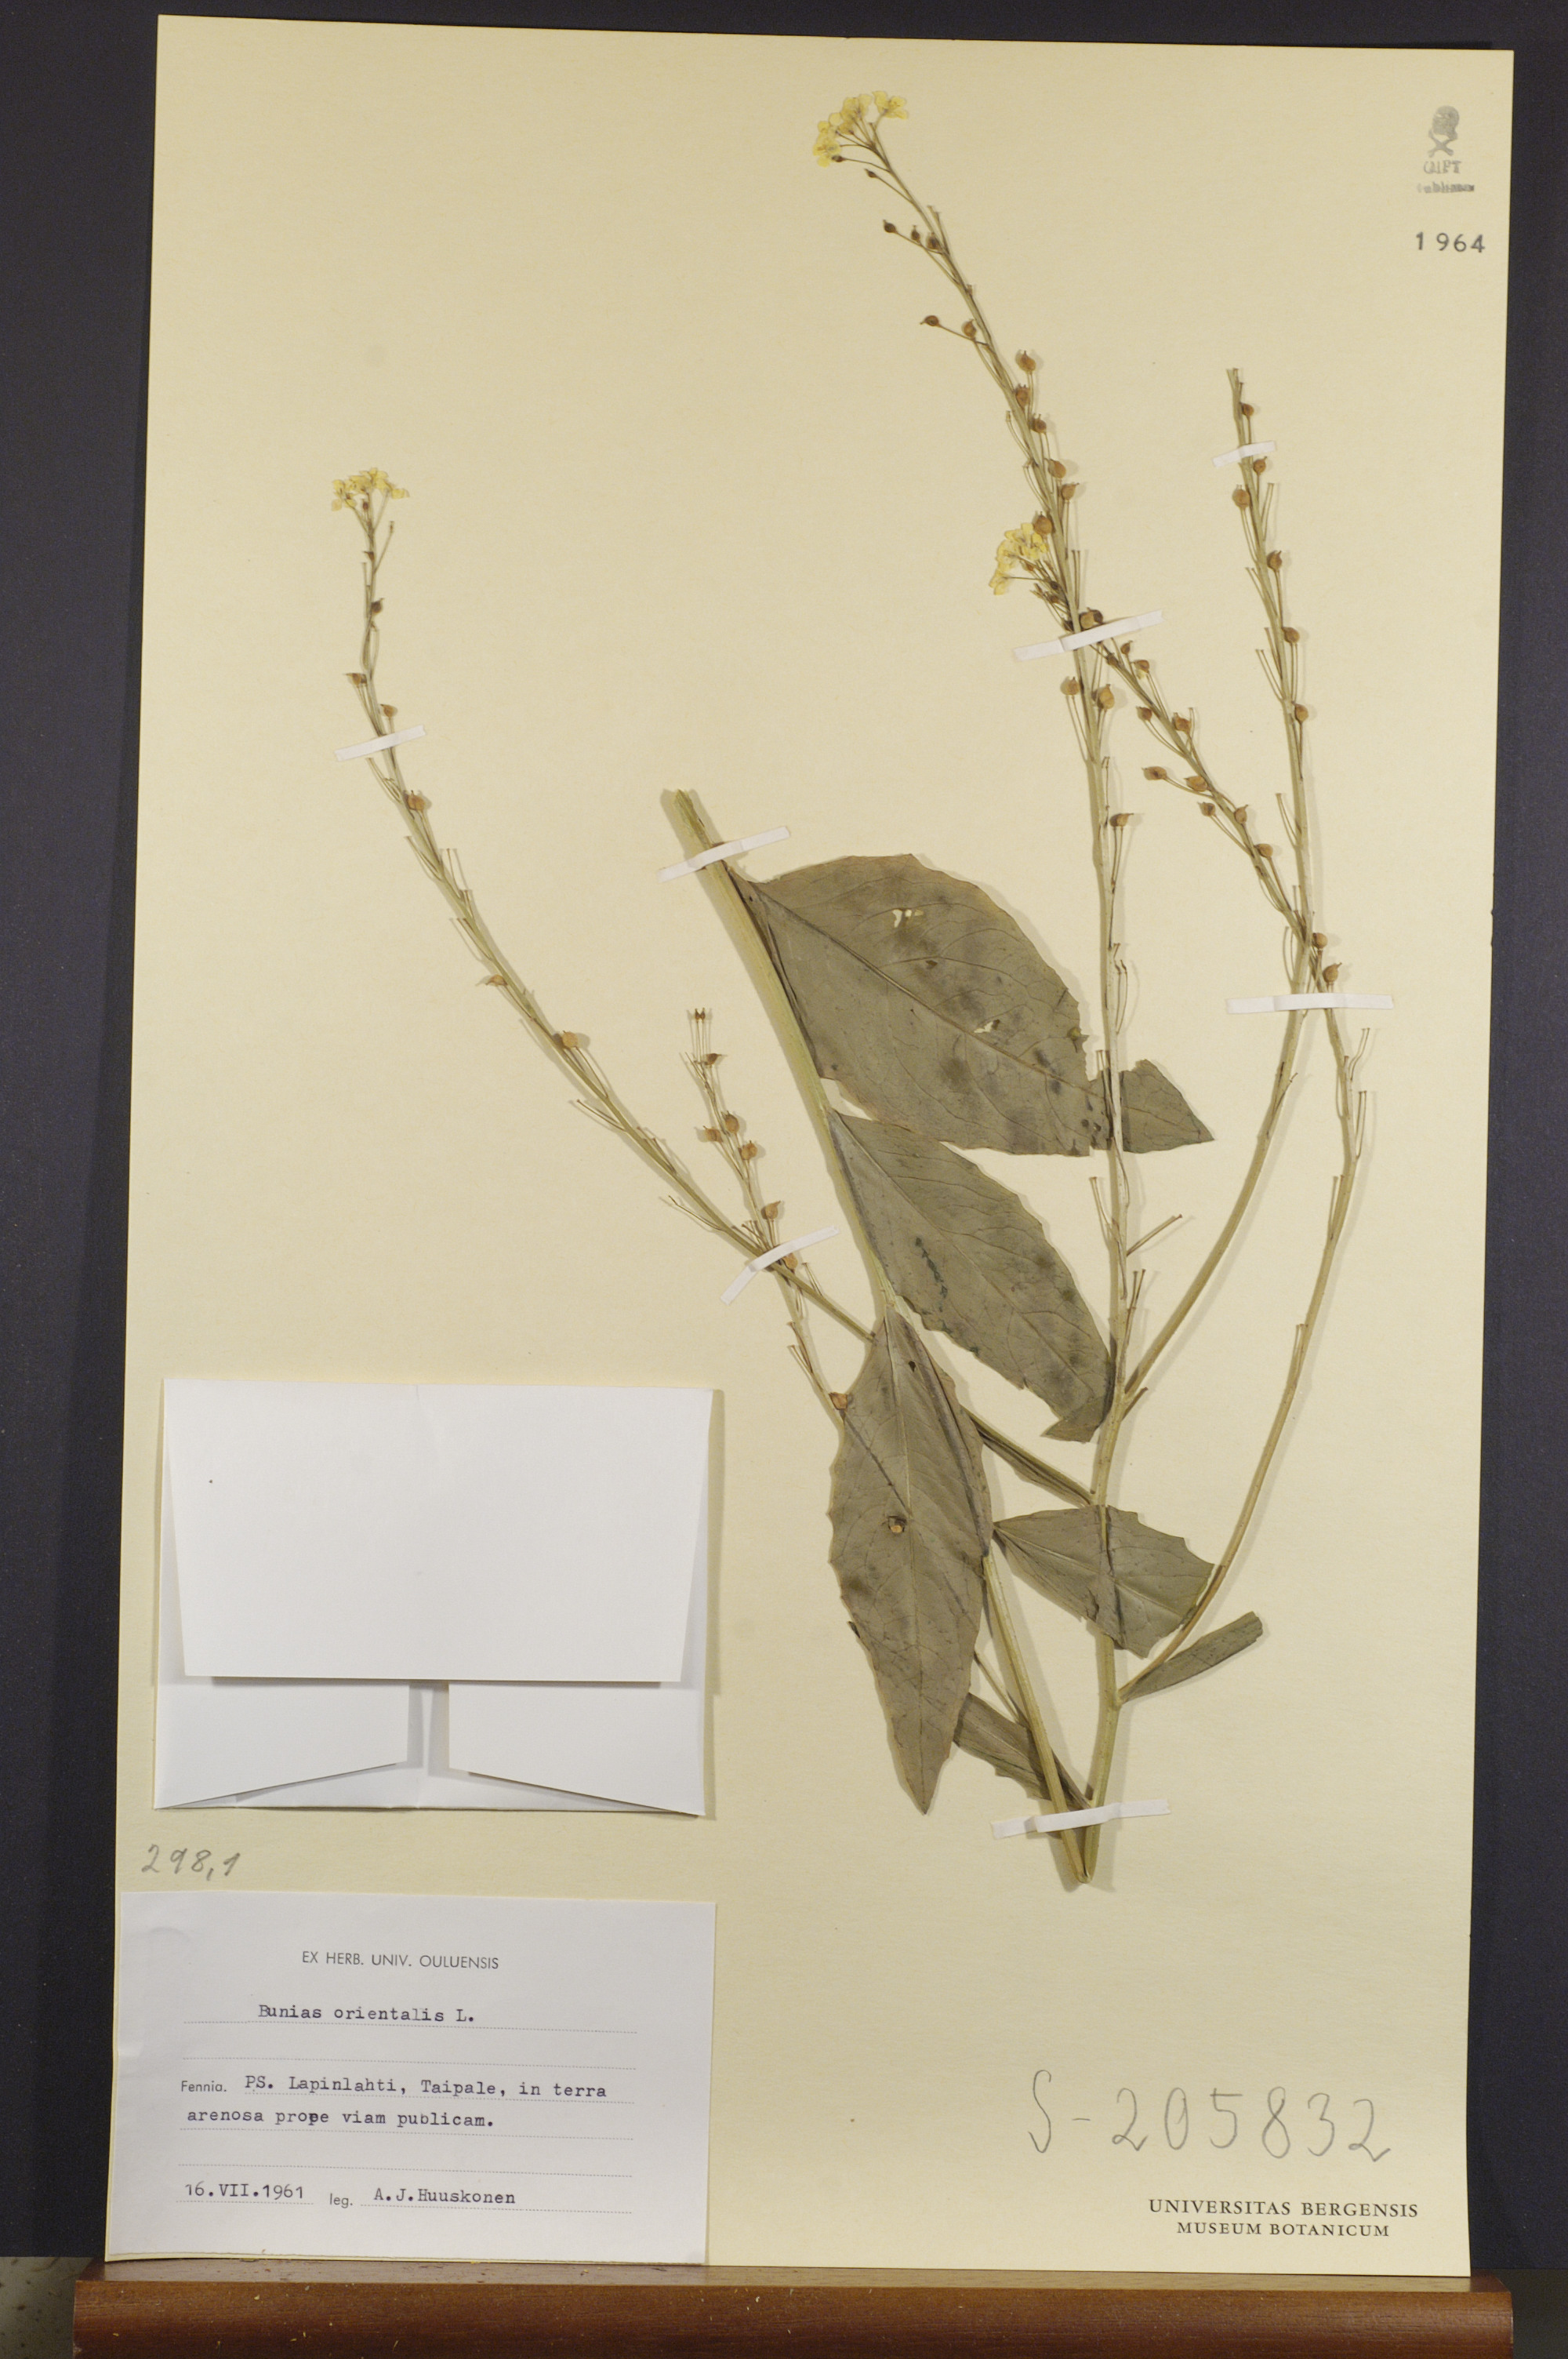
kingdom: Plantae
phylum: Tracheophyta
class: Magnoliopsida
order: Brassicales
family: Brassicaceae
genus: Bunias
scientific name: Bunias orientalis
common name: Warty-cabbage
